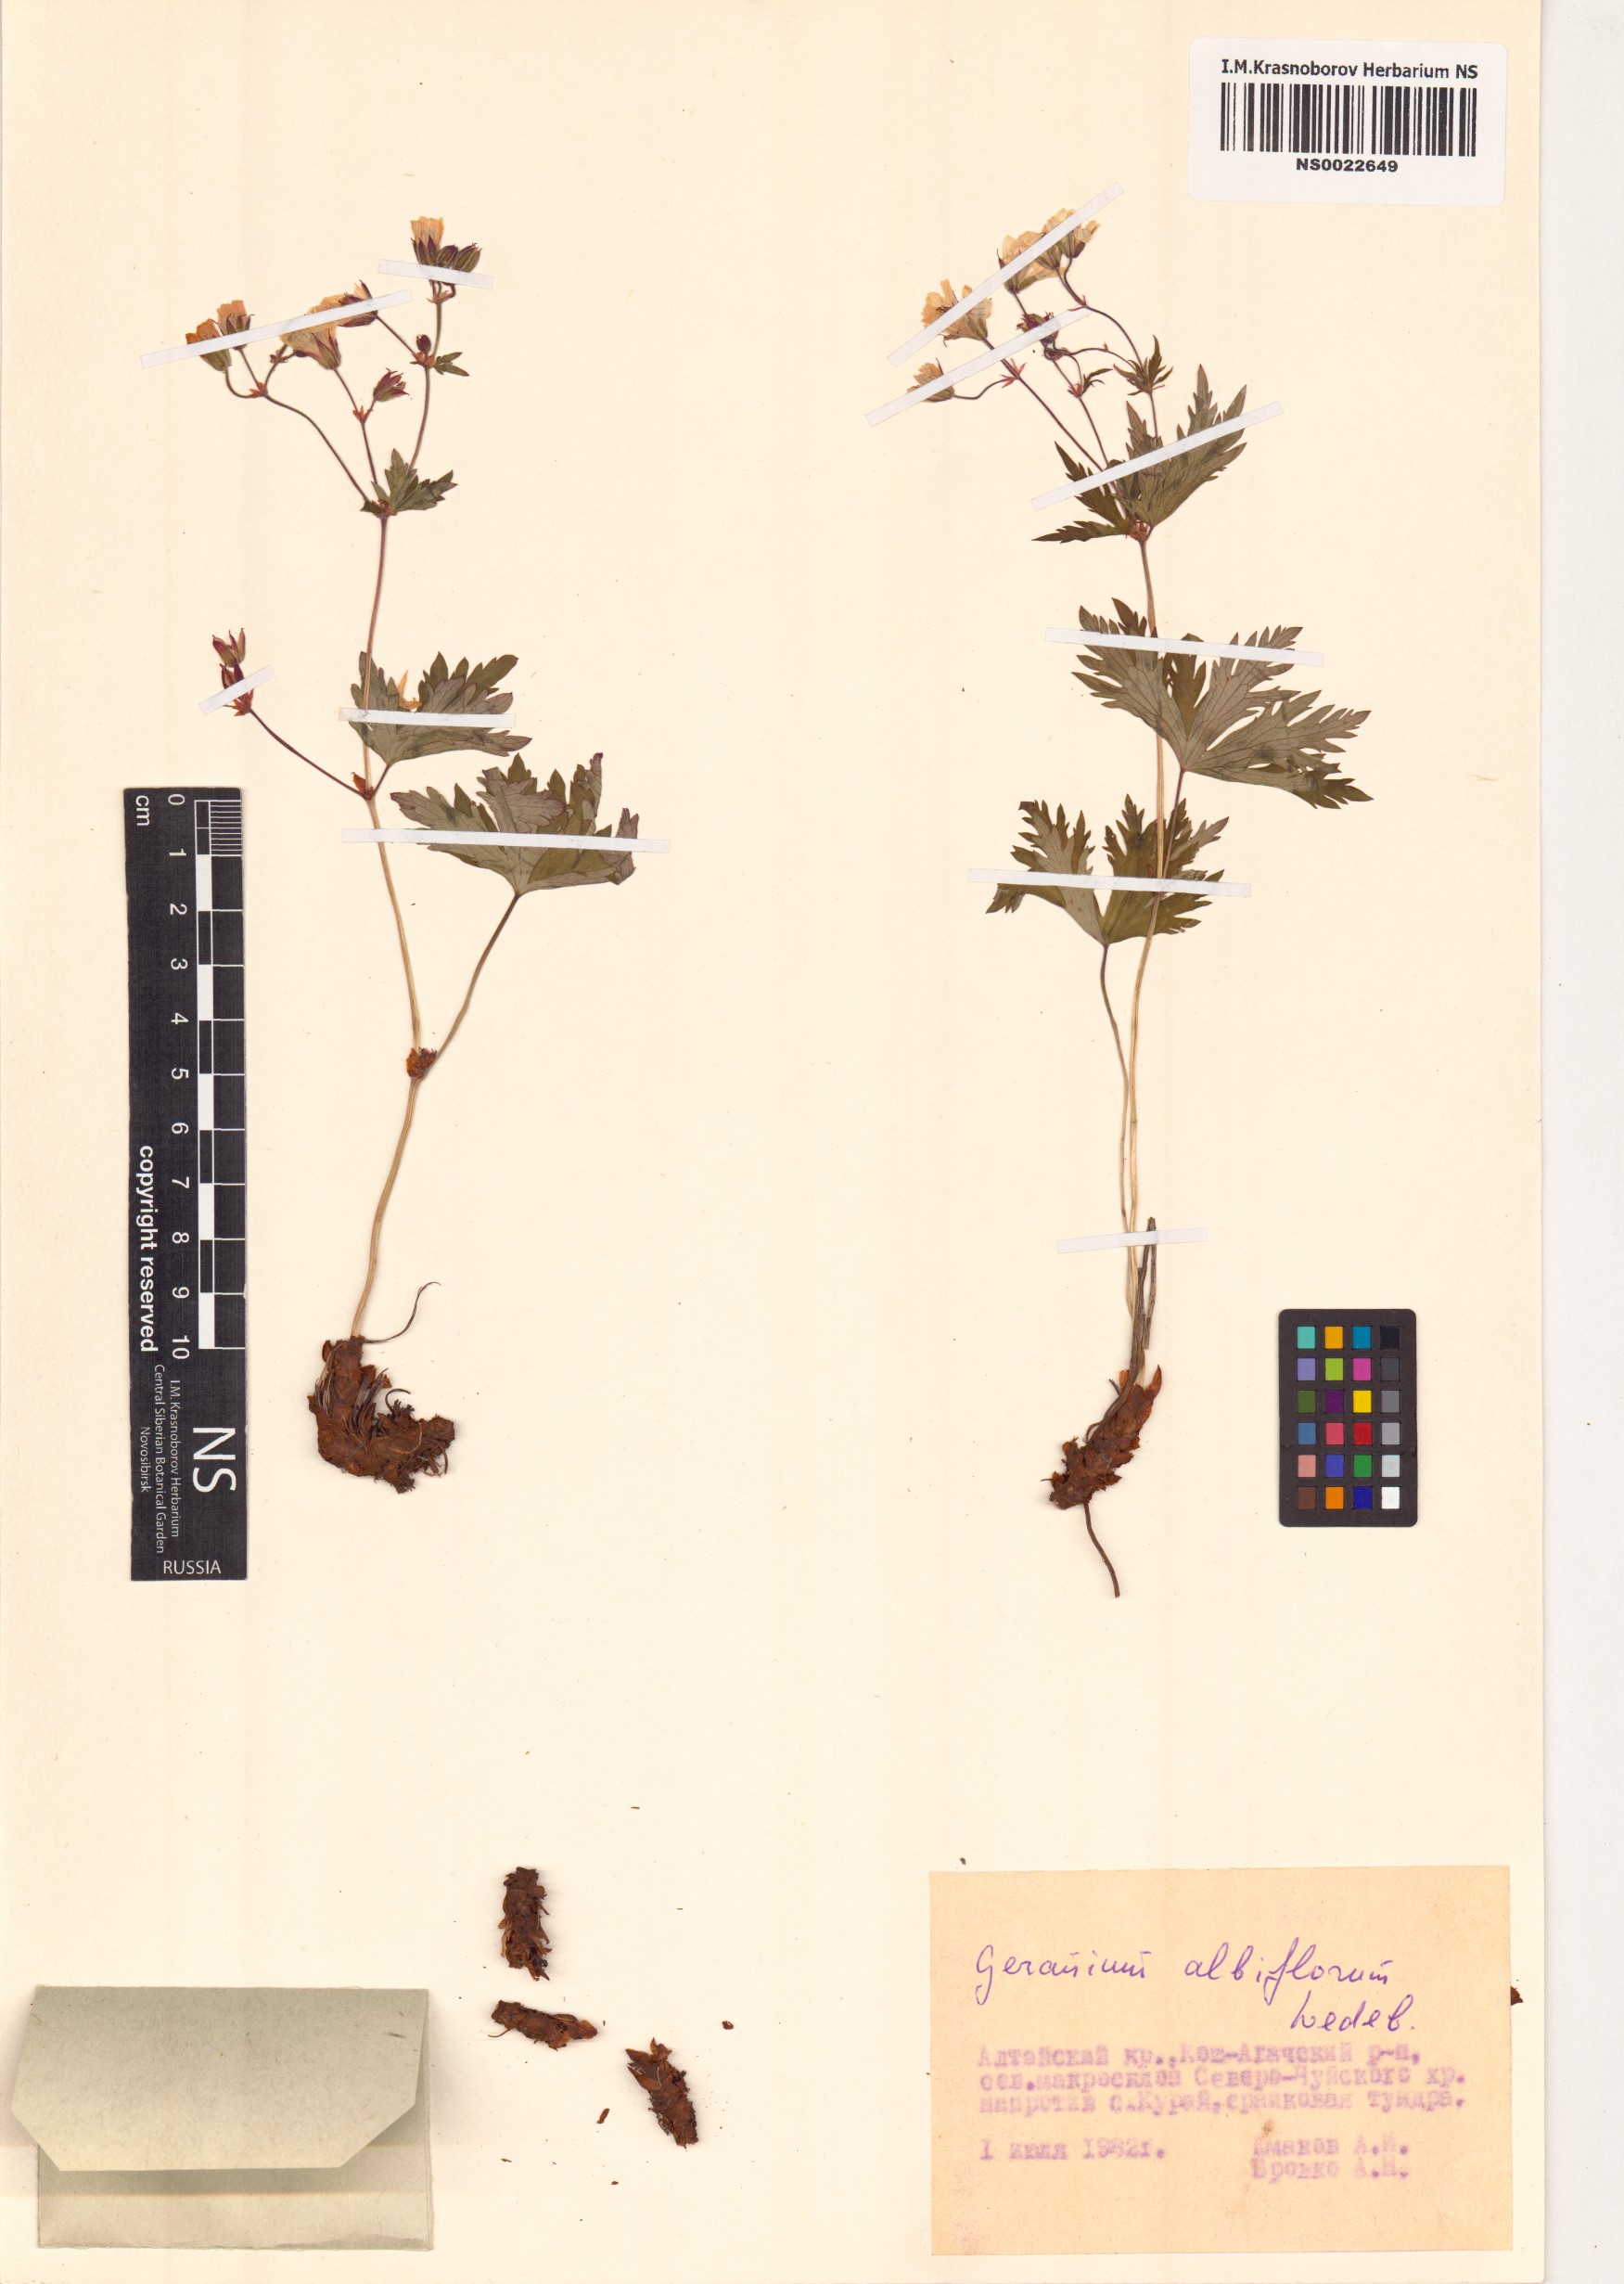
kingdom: Plantae
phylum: Tracheophyta
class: Magnoliopsida
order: Geraniales
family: Geraniaceae
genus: Geranium
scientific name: Geranium albiflorum
